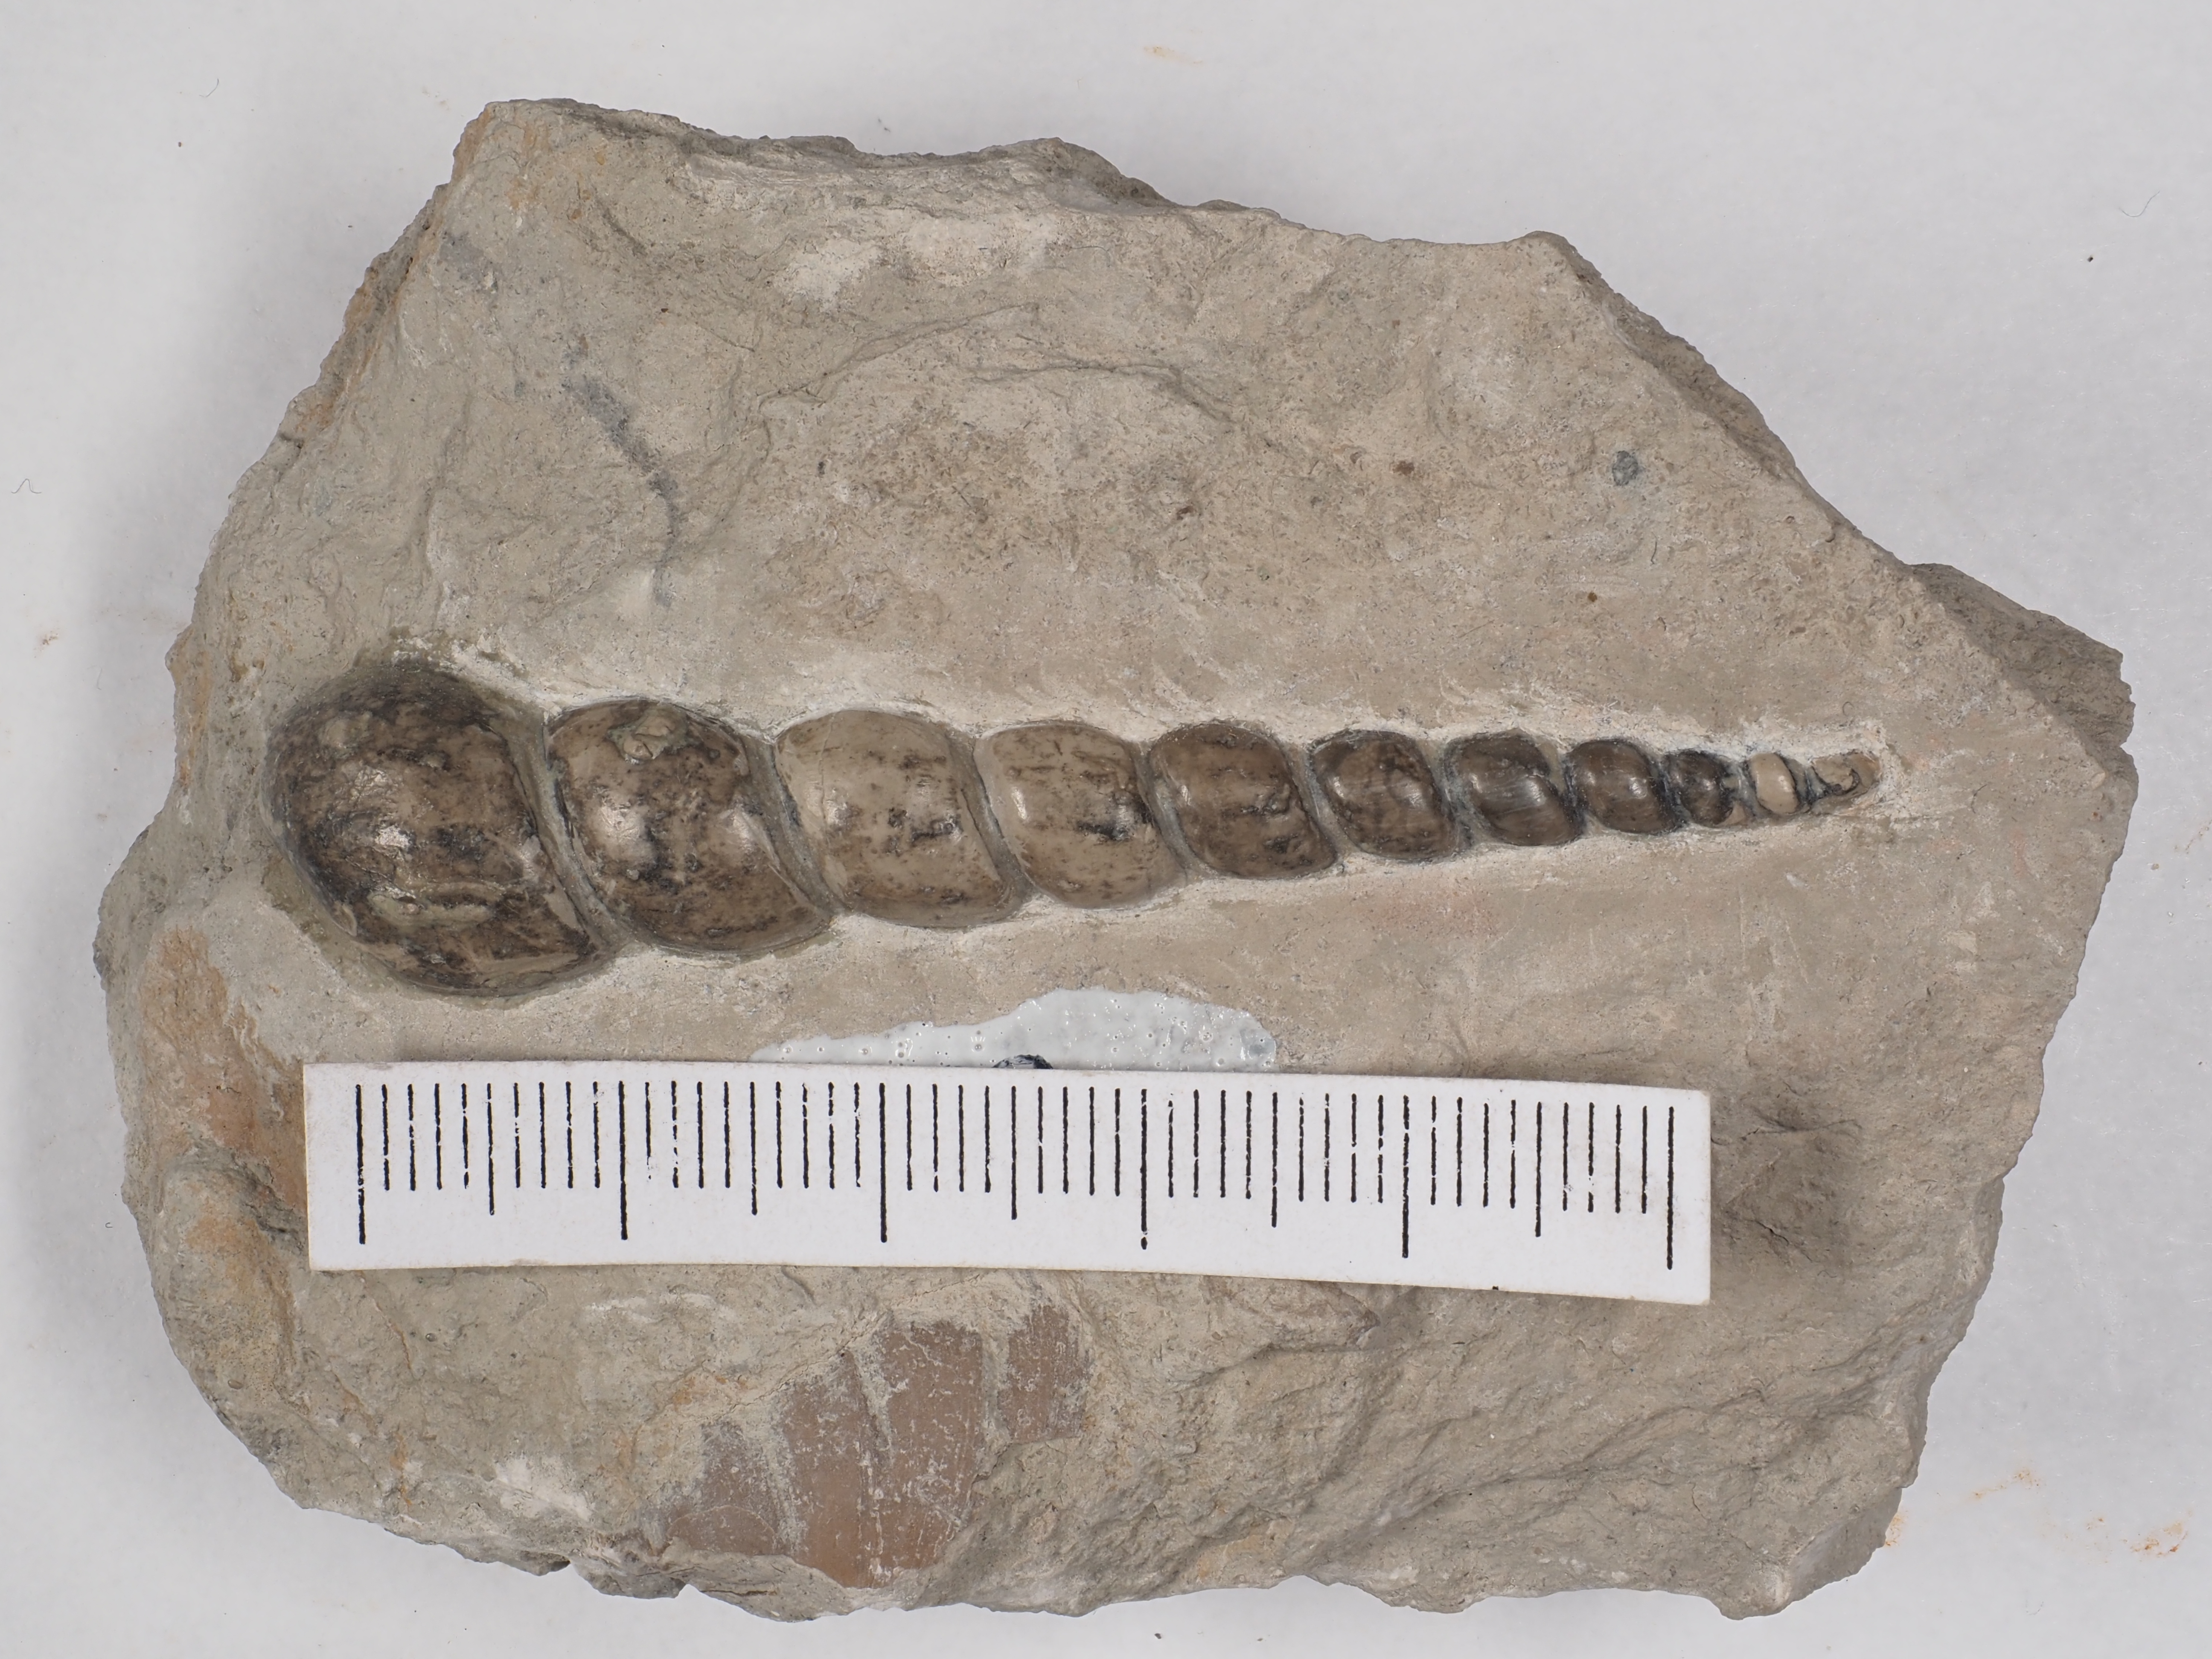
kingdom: Animalia
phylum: Mollusca
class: Gastropoda
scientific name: Gastropoda
